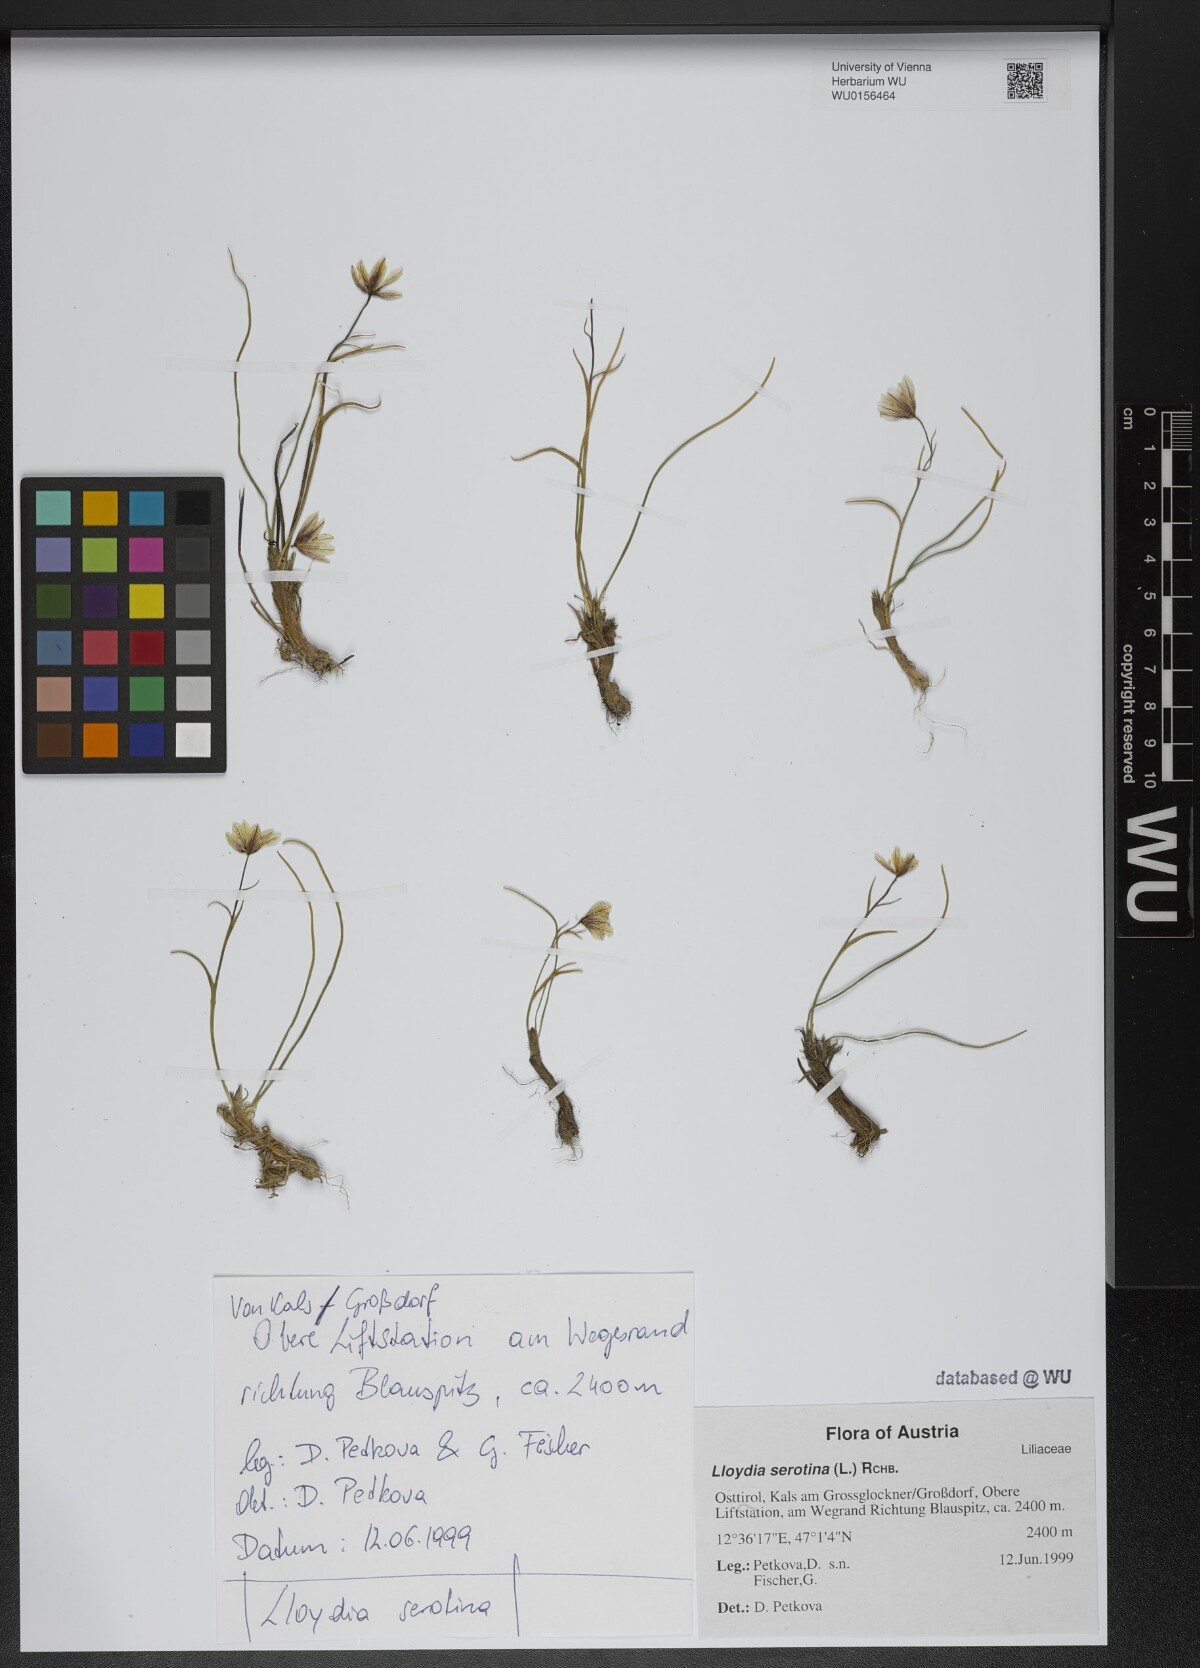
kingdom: Plantae
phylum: Tracheophyta
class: Liliopsida
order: Liliales
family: Liliaceae
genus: Gagea
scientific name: Gagea serotina
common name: Snowdon lily
